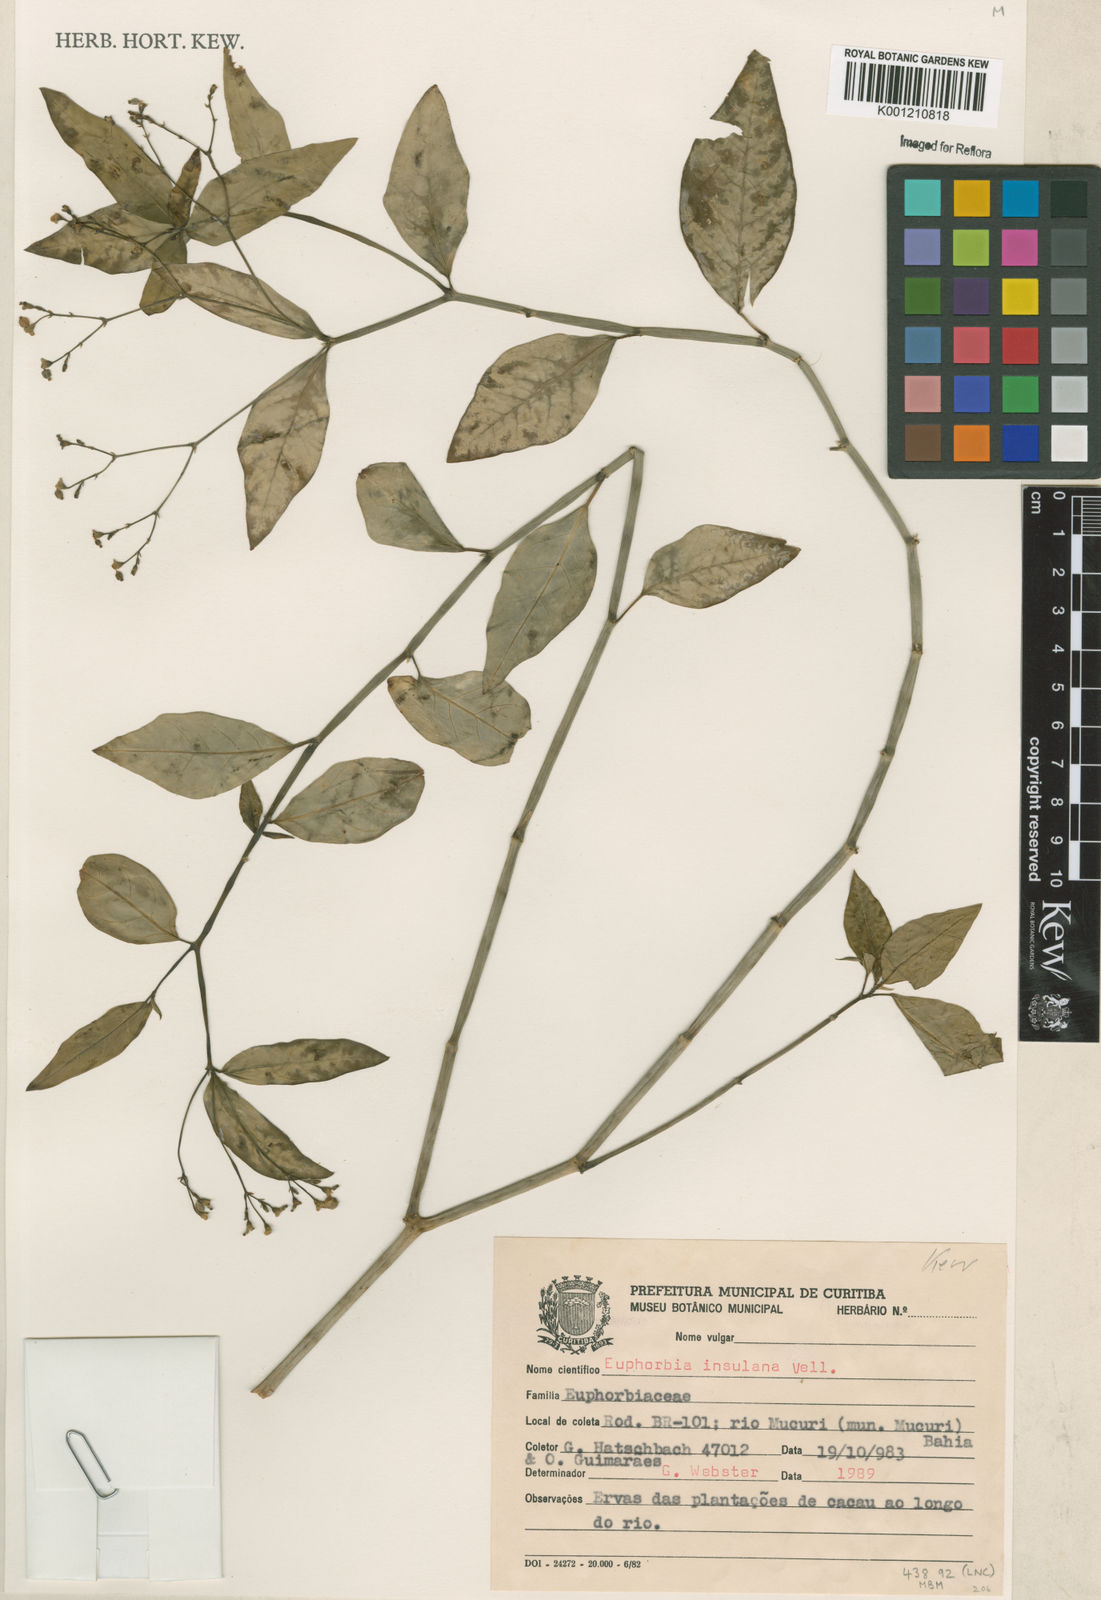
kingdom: Plantae
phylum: Tracheophyta
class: Magnoliopsida
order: Malpighiales
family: Euphorbiaceae
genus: Euphorbia
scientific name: Euphorbia insulana
